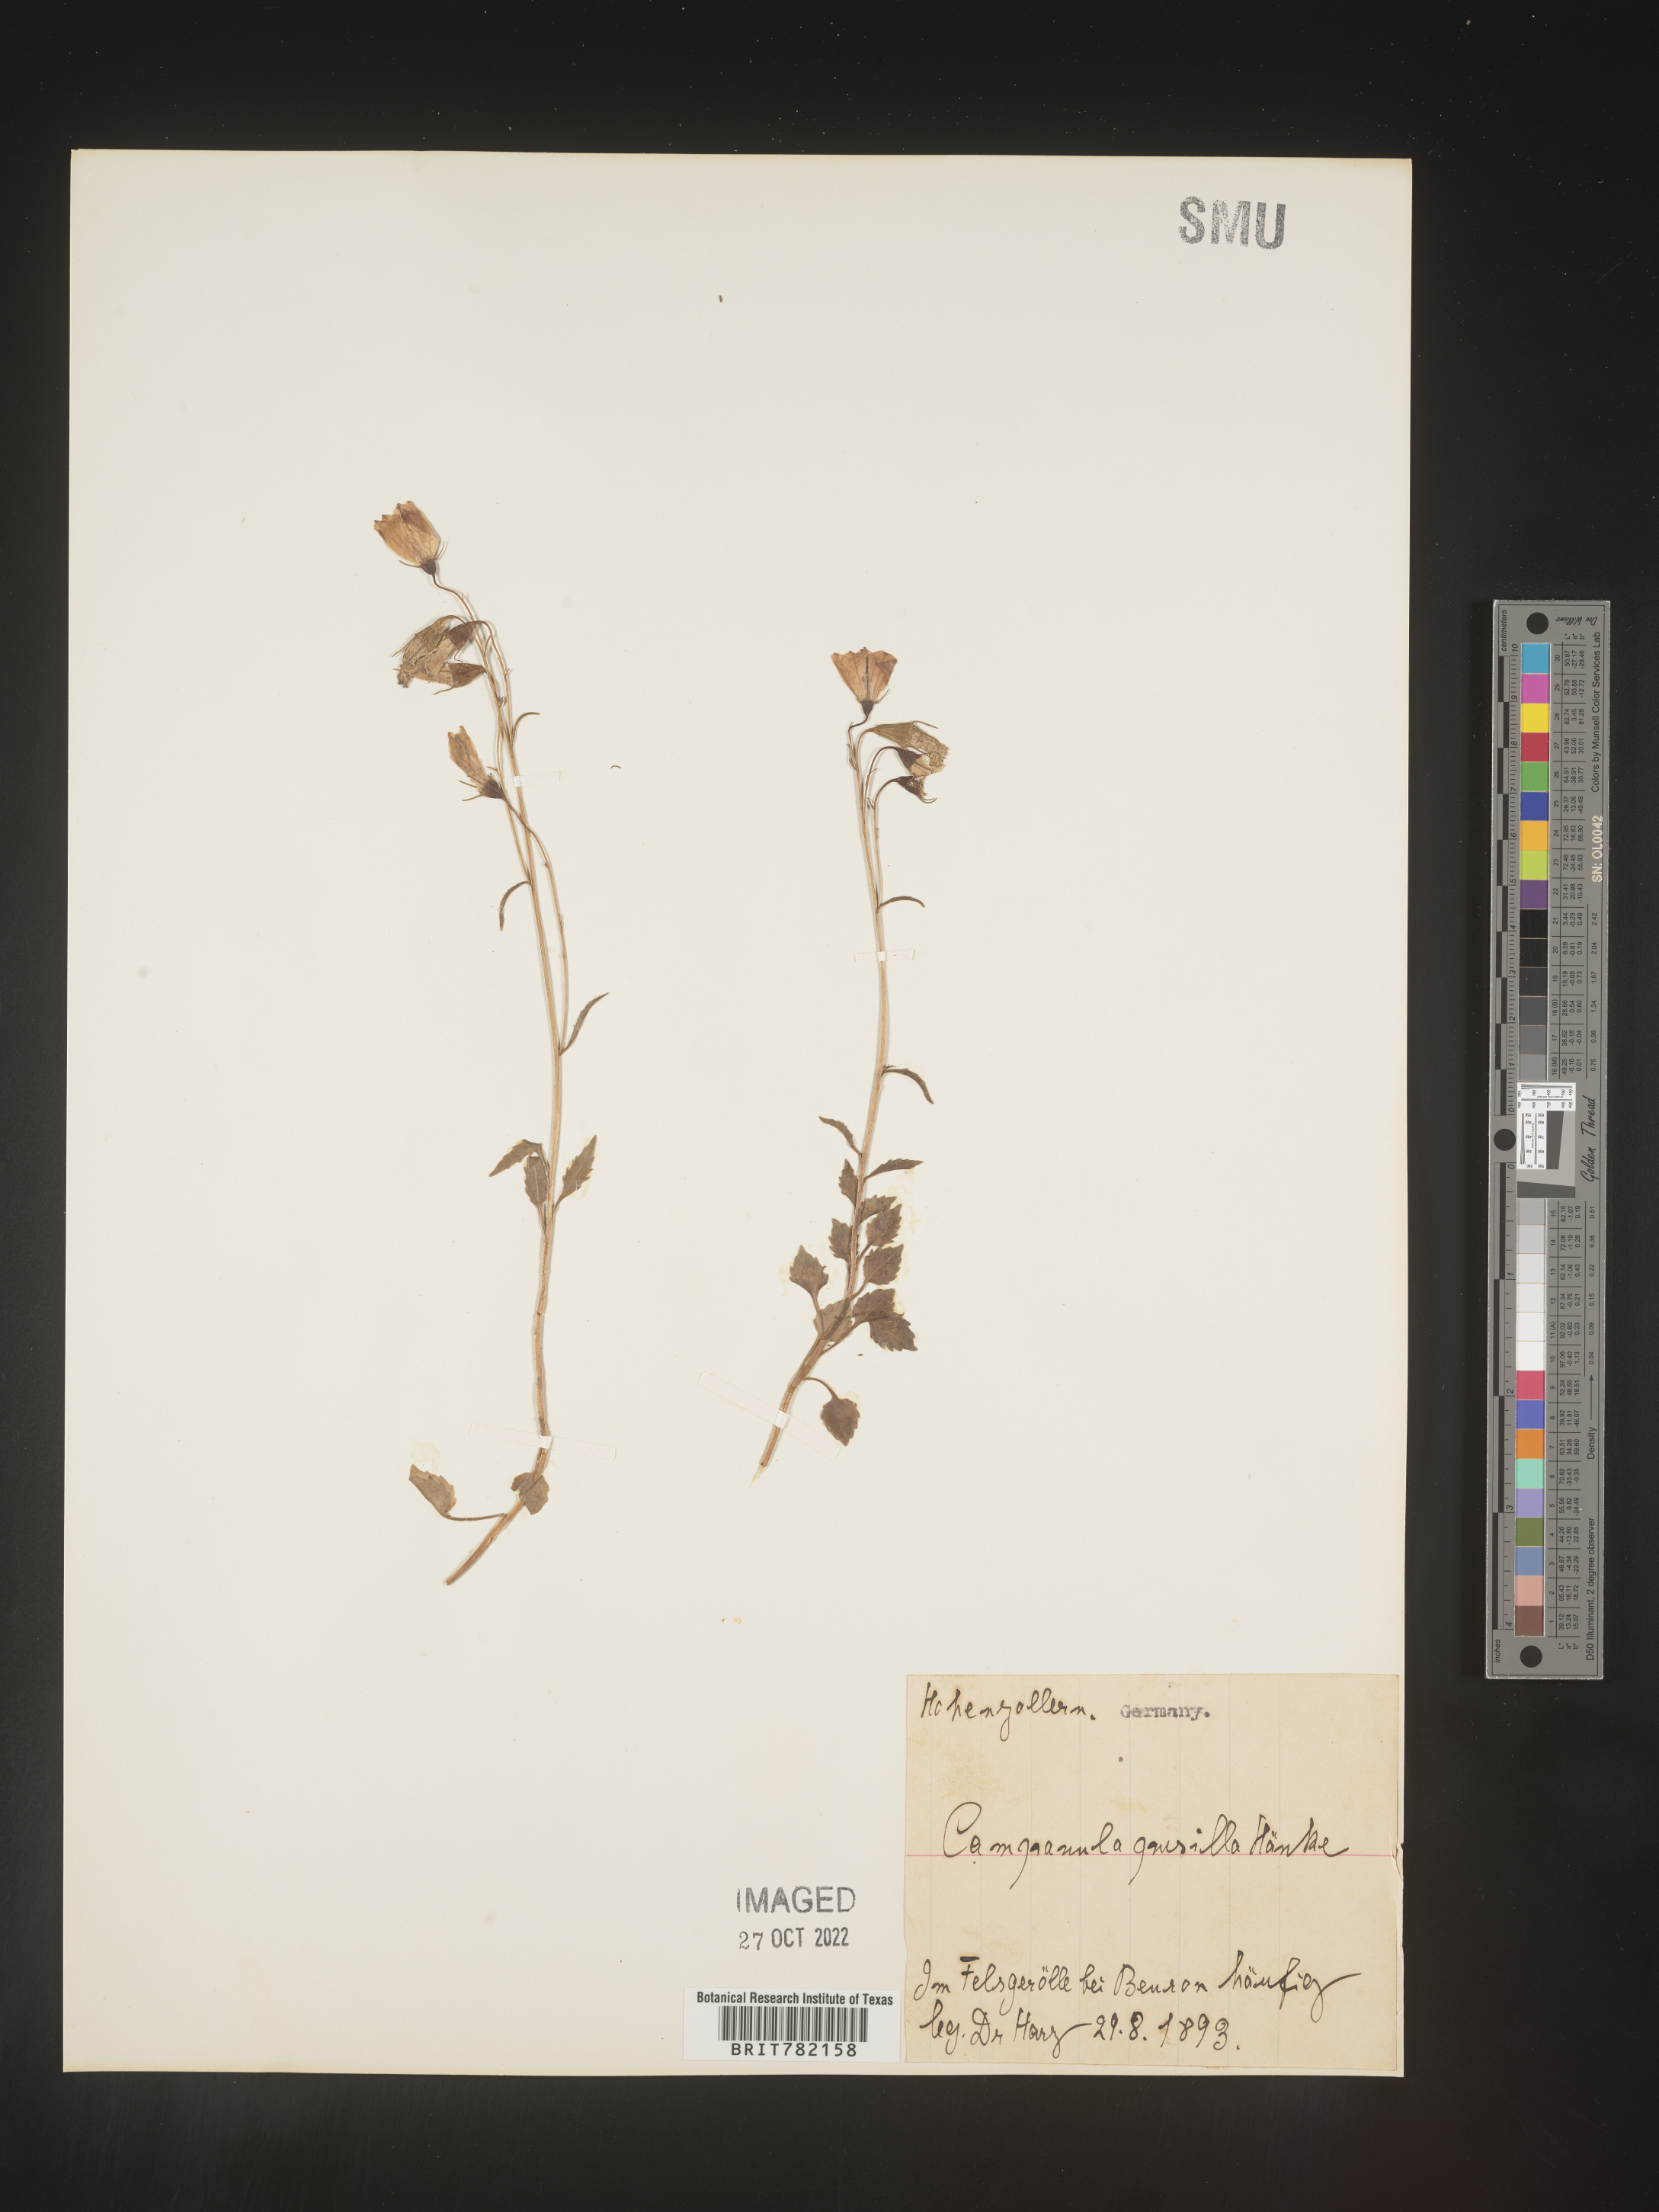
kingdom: Plantae
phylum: Tracheophyta
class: Magnoliopsida
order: Asterales
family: Campanulaceae
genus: Campanula
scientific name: Campanula
